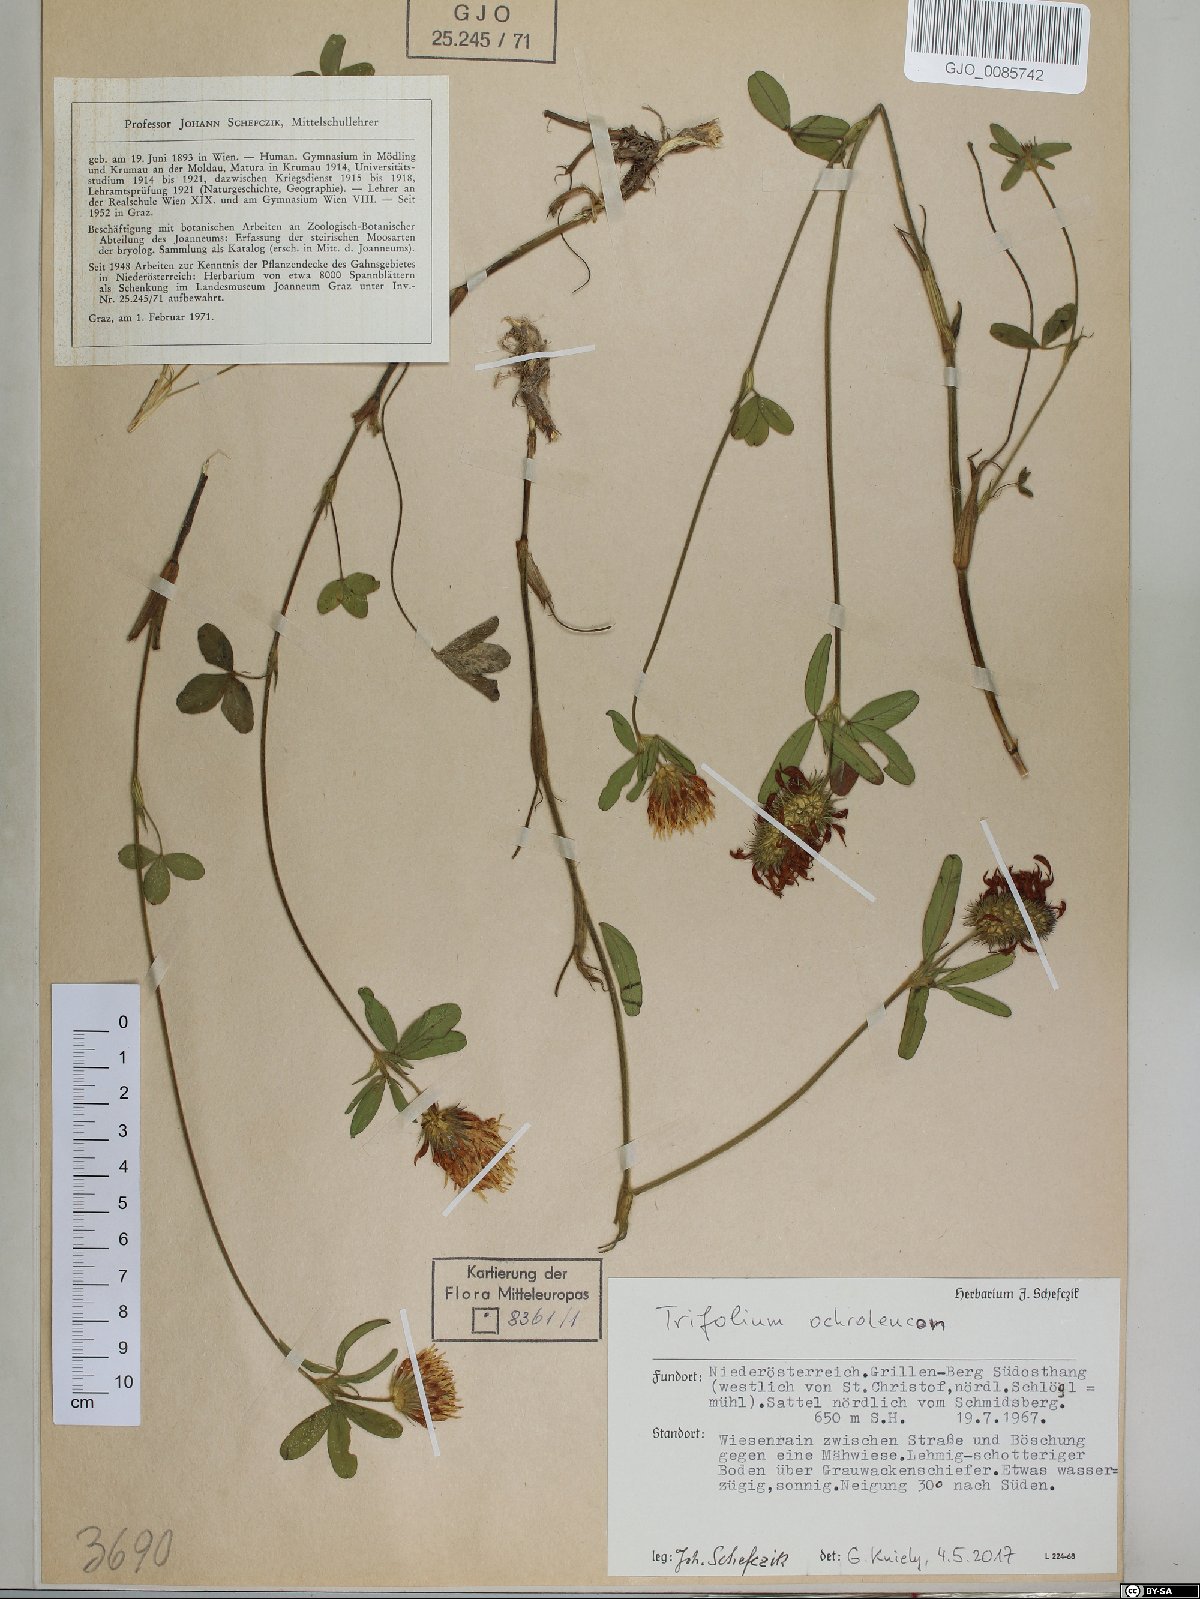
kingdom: Plantae
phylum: Tracheophyta
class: Magnoliopsida
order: Fabales
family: Fabaceae
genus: Trifolium
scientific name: Trifolium ochroleucon
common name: Sulphur clover
